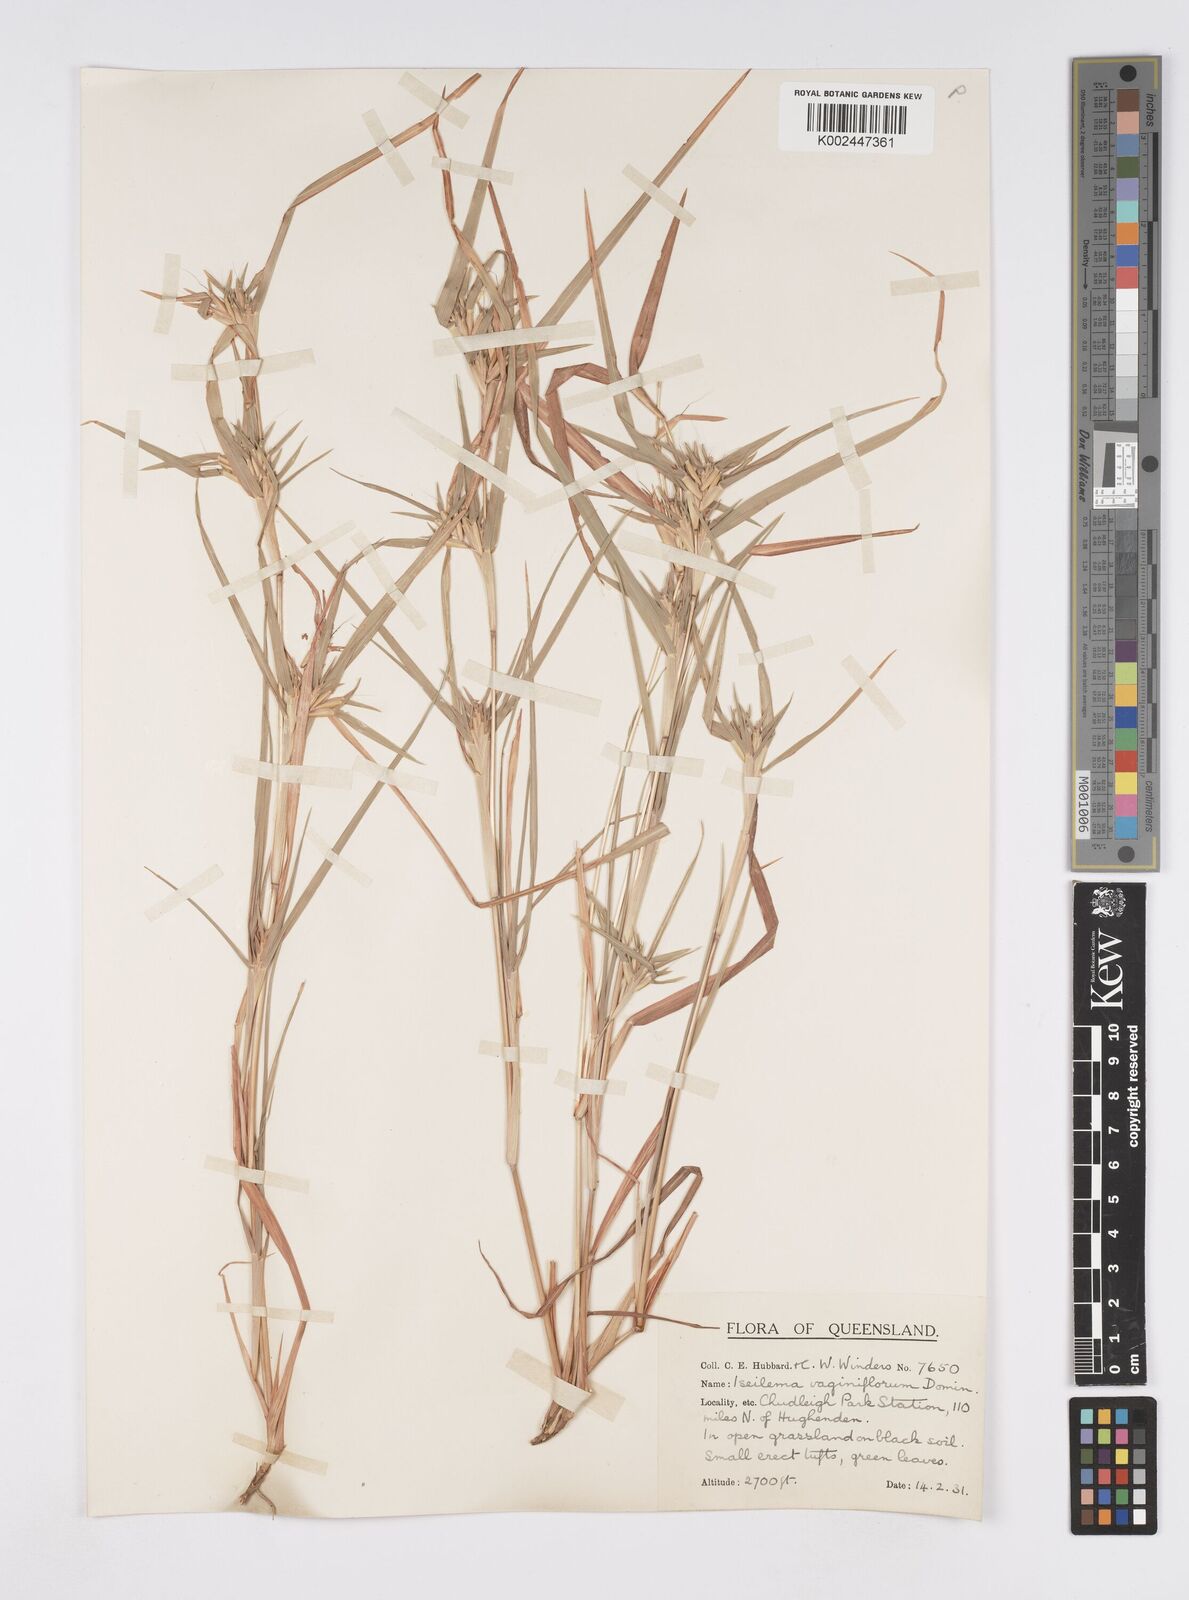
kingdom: Plantae
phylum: Tracheophyta
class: Liliopsida
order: Poales
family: Poaceae
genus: Iseilema
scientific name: Iseilema vaginiflorum
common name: Red flinders grass
